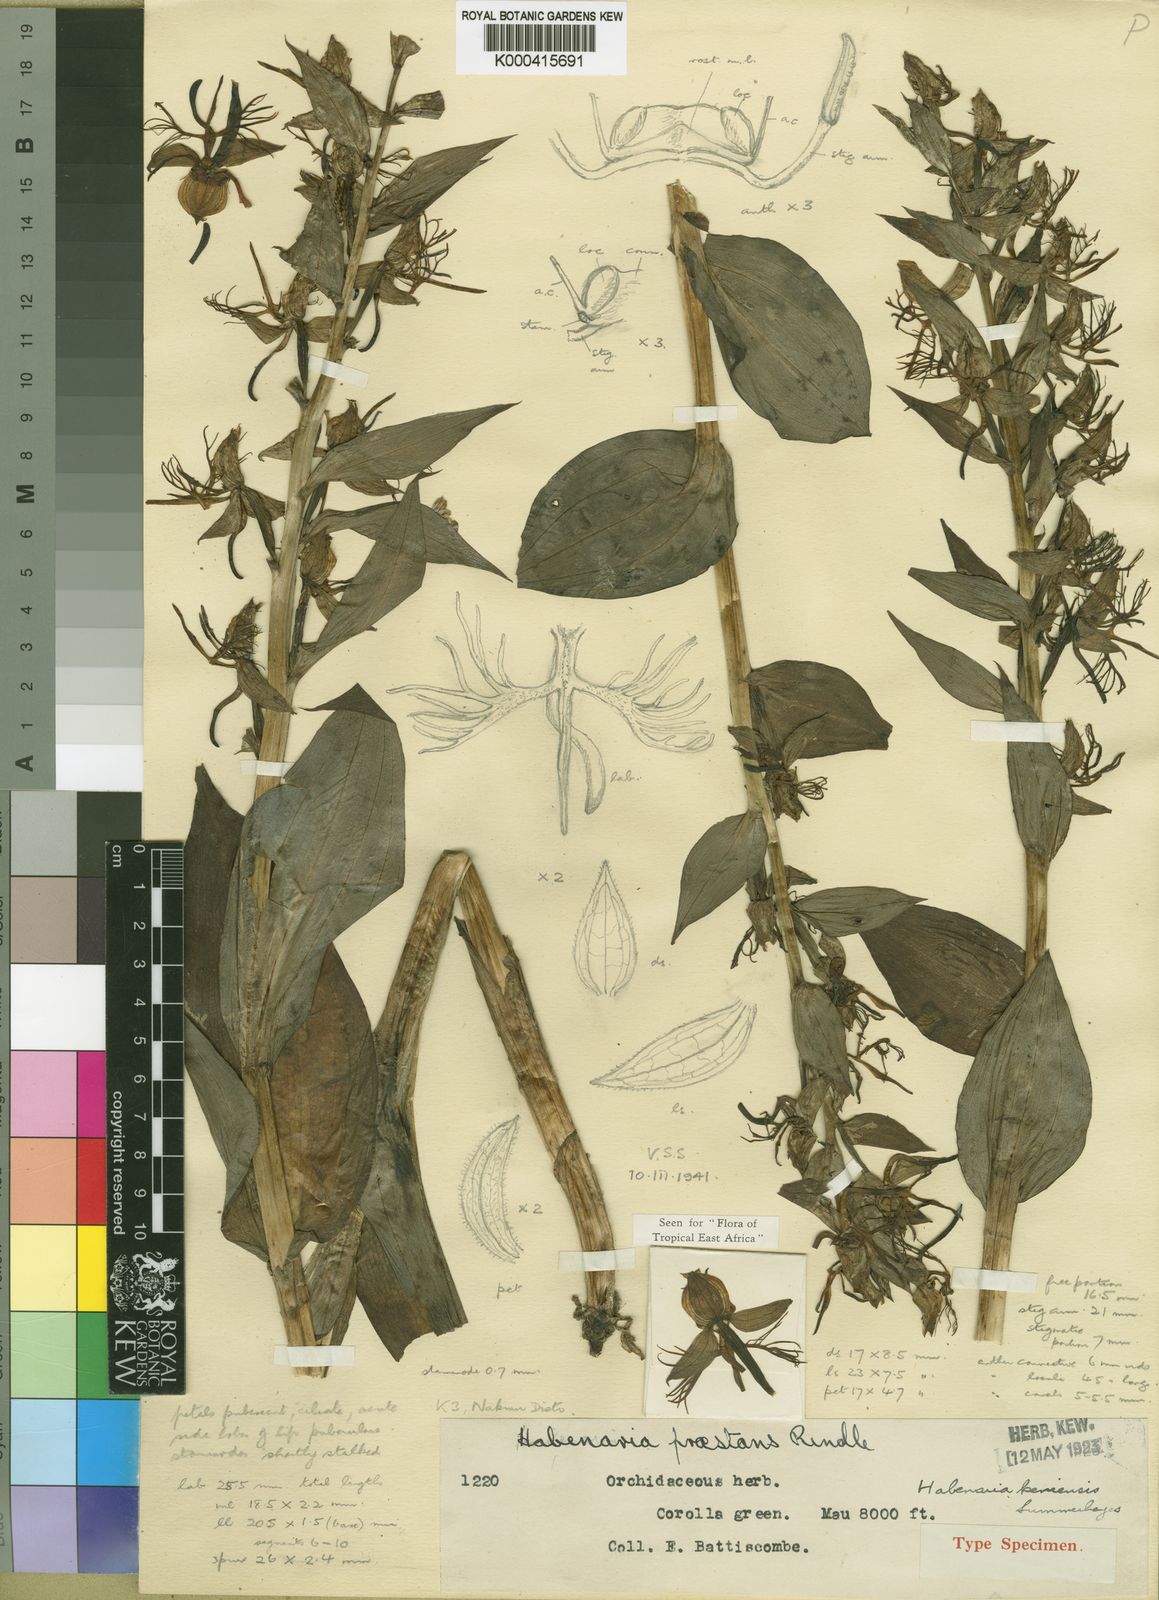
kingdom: Plantae
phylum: Tracheophyta
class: Liliopsida
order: Asparagales
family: Orchidaceae
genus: Habenaria
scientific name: Habenaria keniensis
